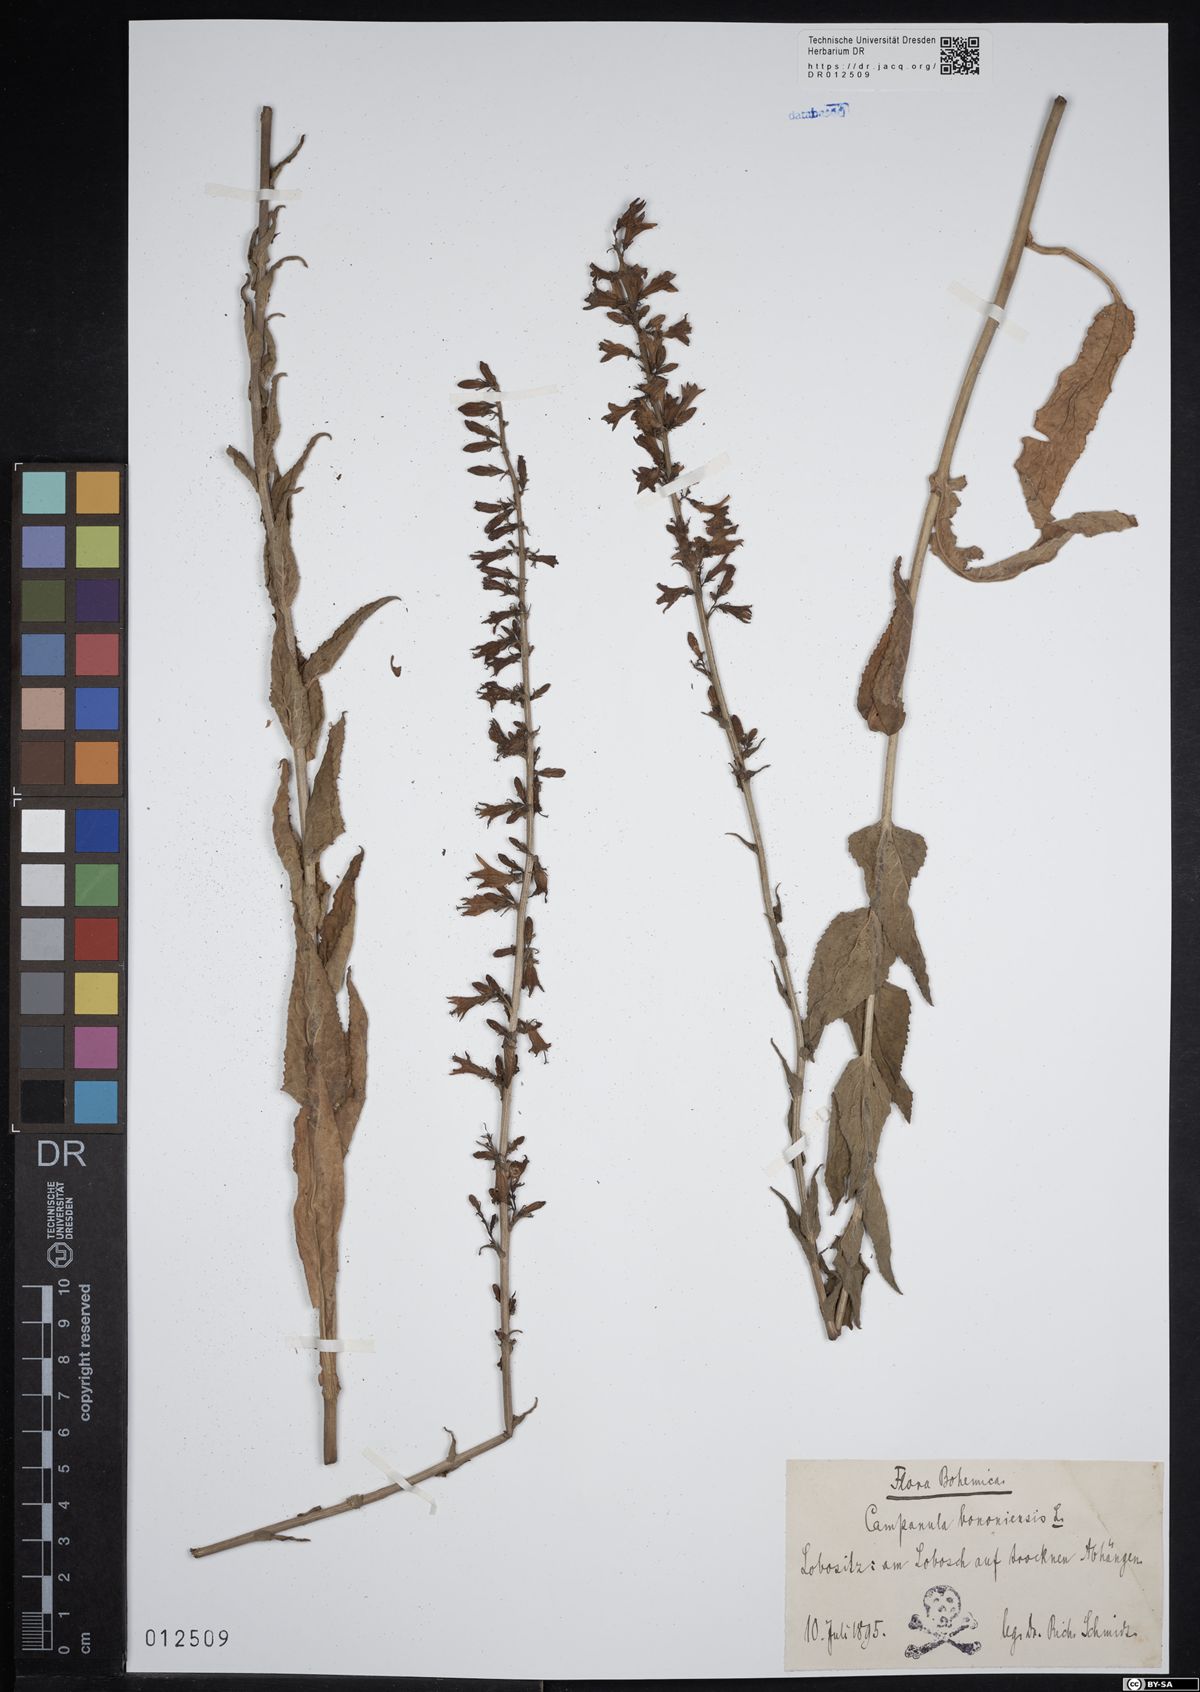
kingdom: Plantae
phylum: Tracheophyta
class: Magnoliopsida
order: Asterales
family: Campanulaceae
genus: Campanula
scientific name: Campanula bononiensis
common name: Pale bellflower
